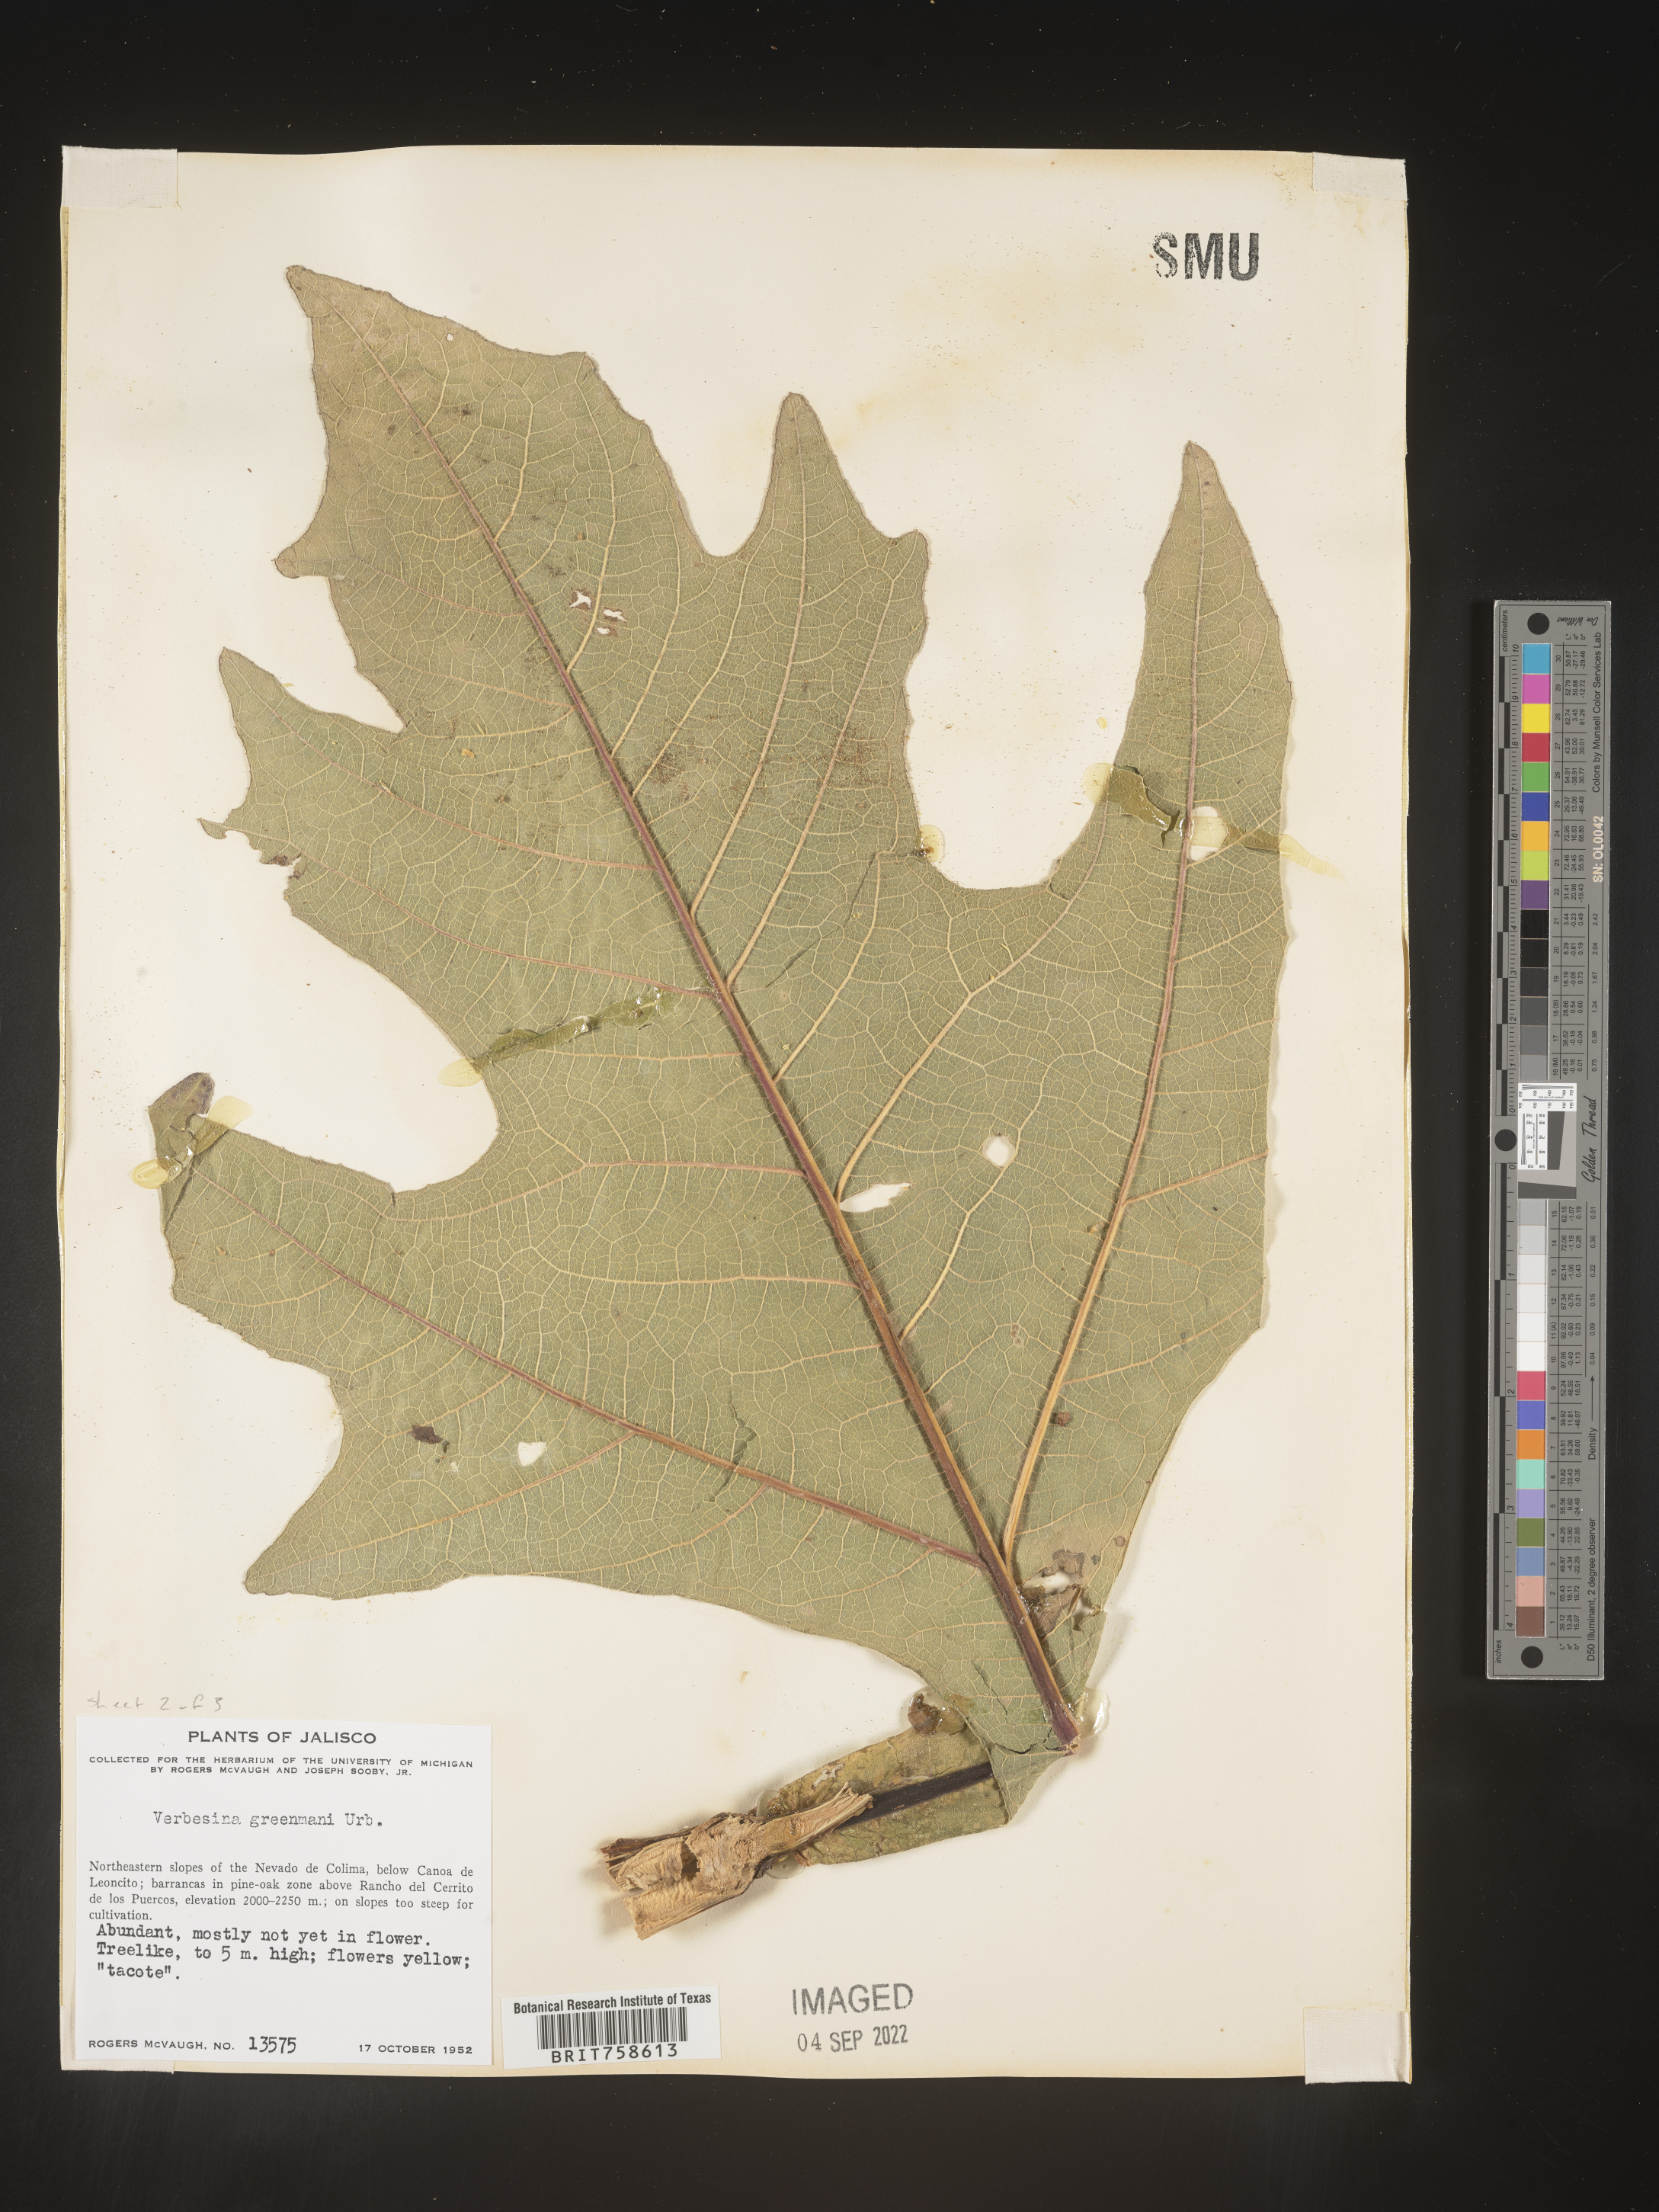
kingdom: Plantae
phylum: Tracheophyta
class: Magnoliopsida
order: Asterales
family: Asteraceae
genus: Verbesina
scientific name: Verbesina
